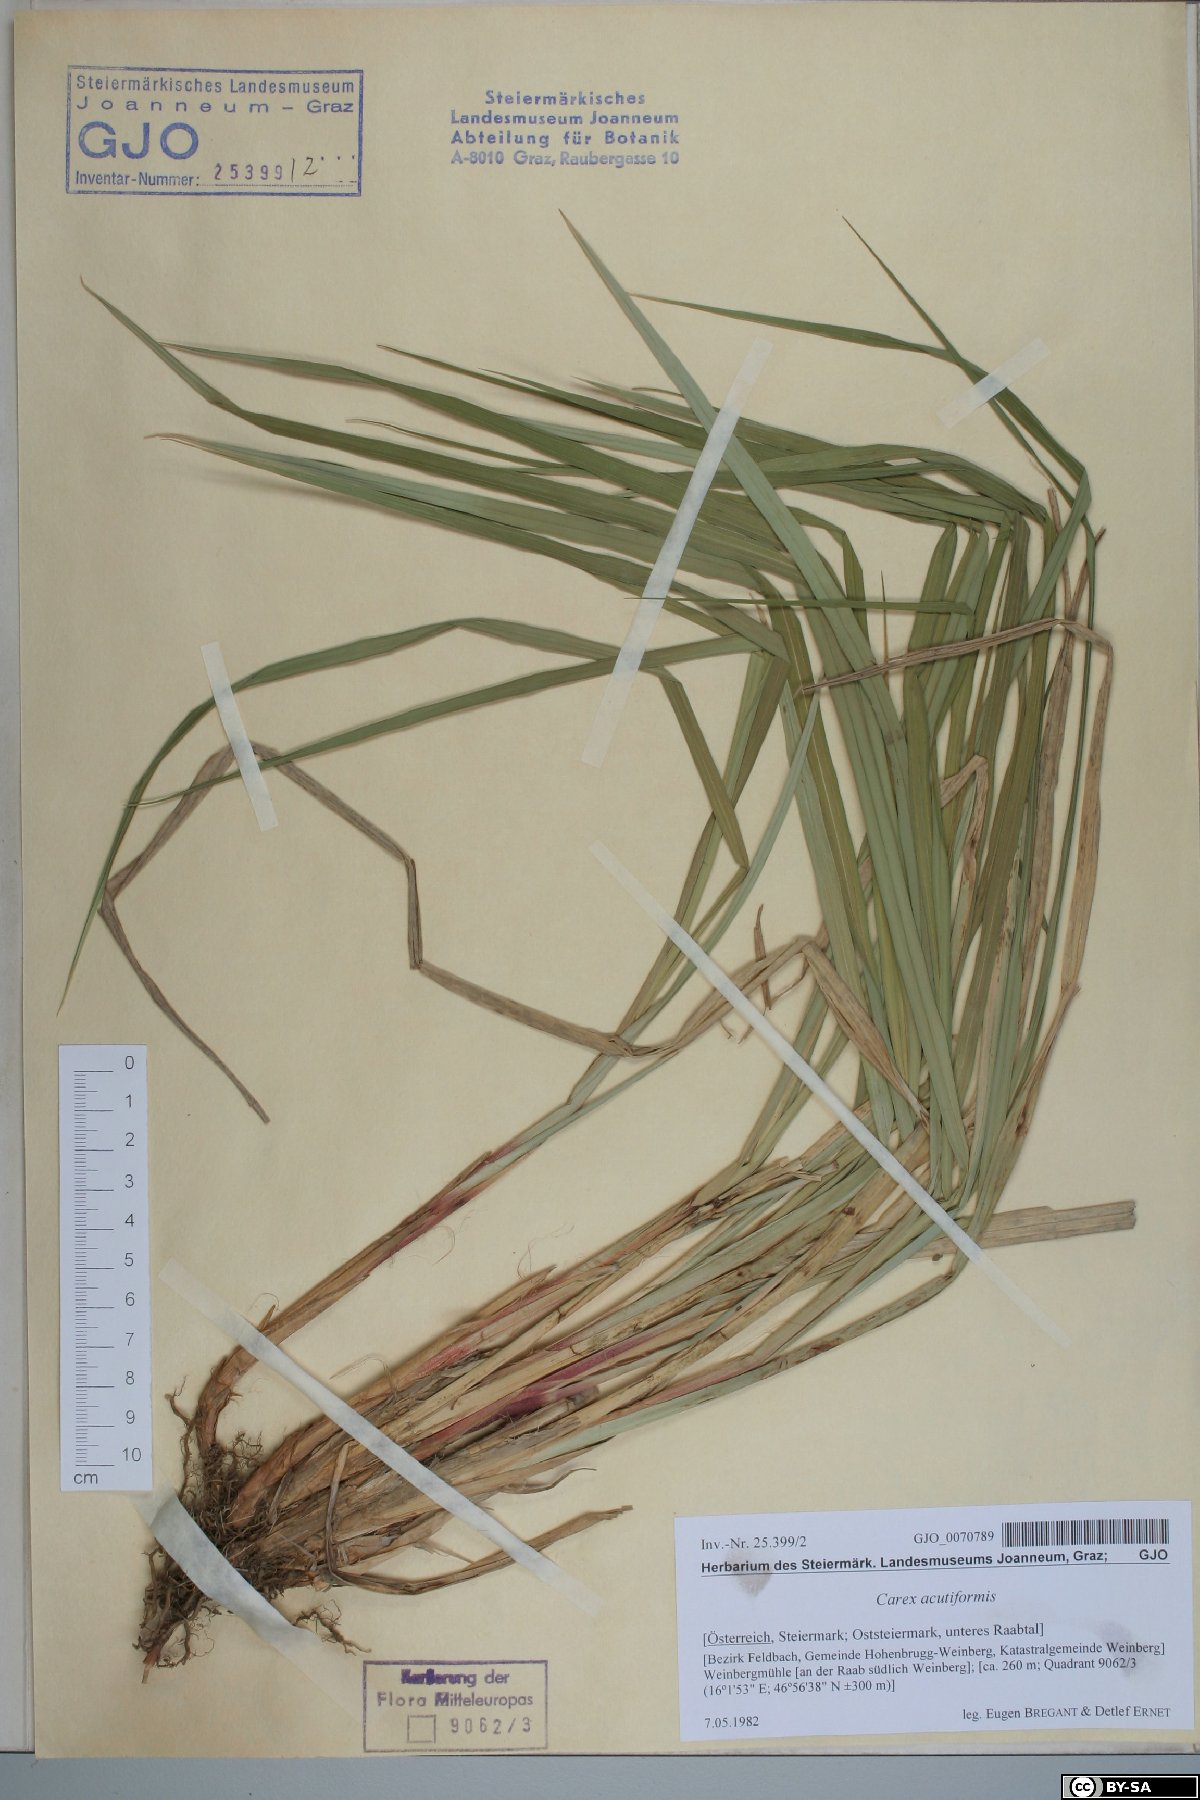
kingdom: Plantae
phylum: Tracheophyta
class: Liliopsida
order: Poales
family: Cyperaceae
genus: Carex
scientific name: Carex acutiformis
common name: Lesser pond-sedge
